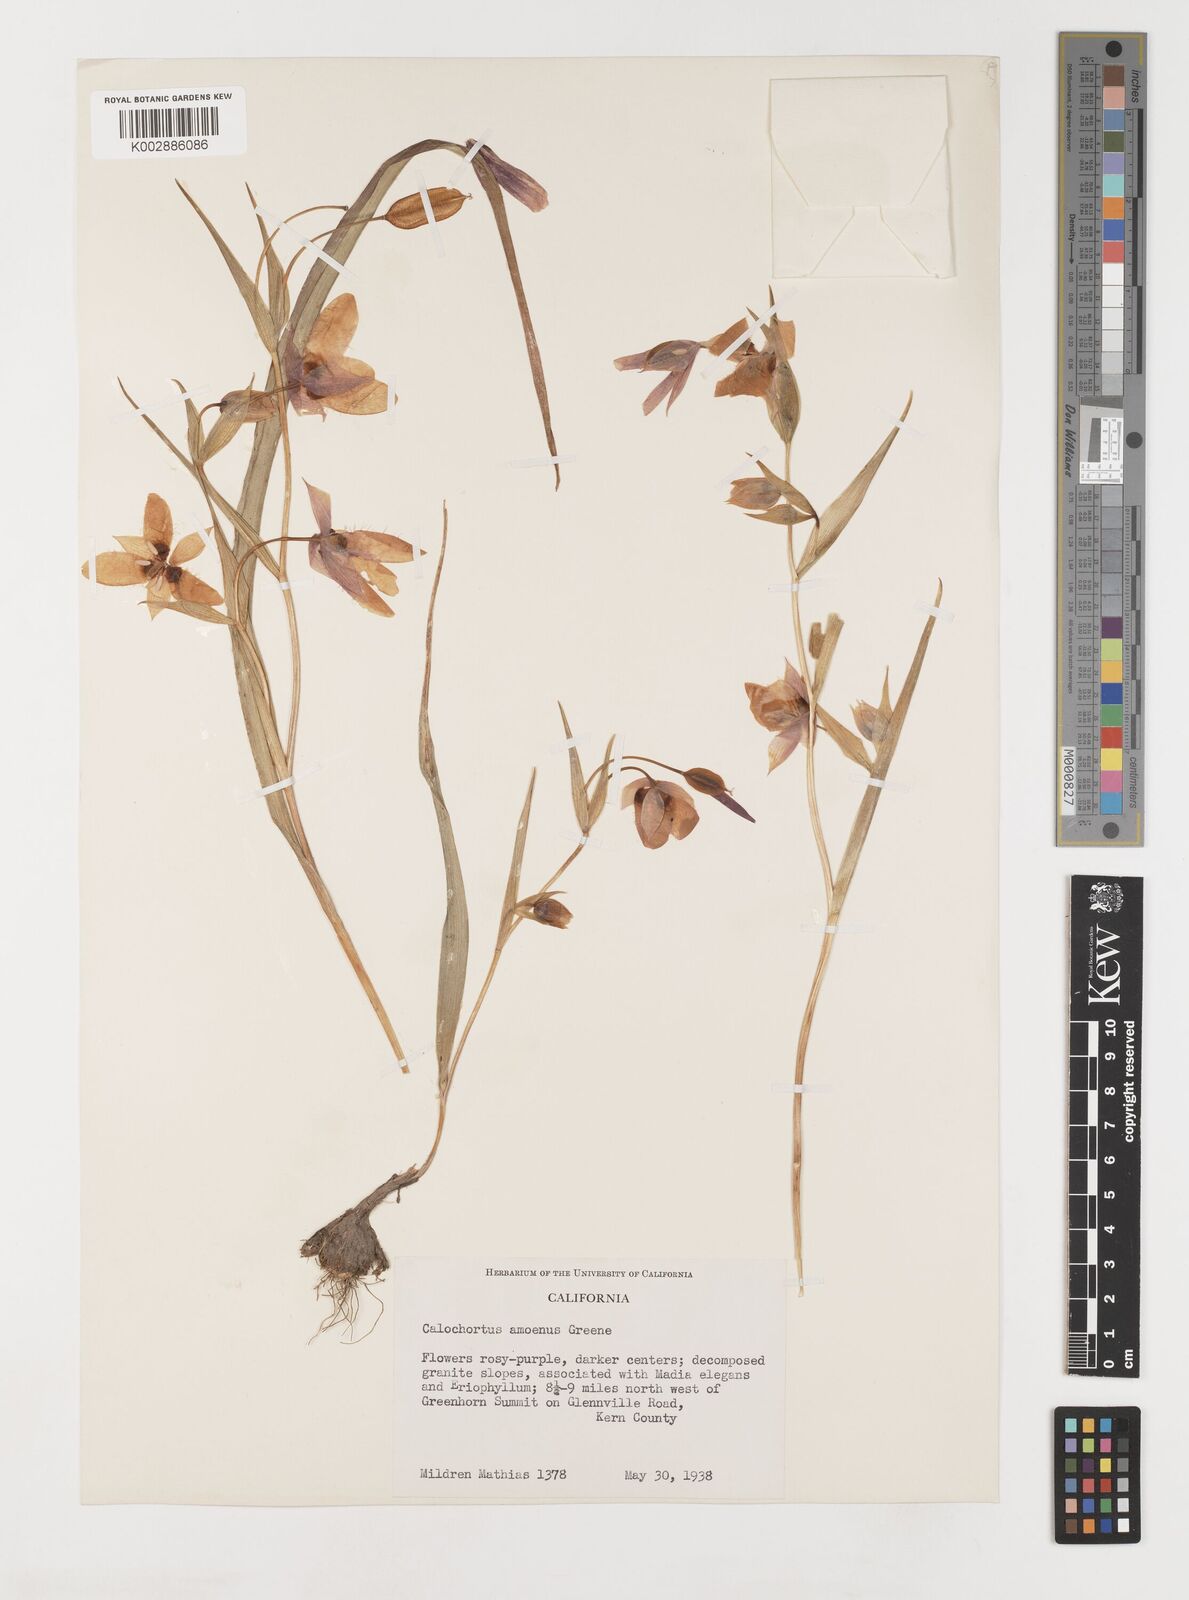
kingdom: Plantae
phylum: Tracheophyta
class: Liliopsida
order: Liliales
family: Liliaceae
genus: Calochortus
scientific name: Calochortus amoenus
